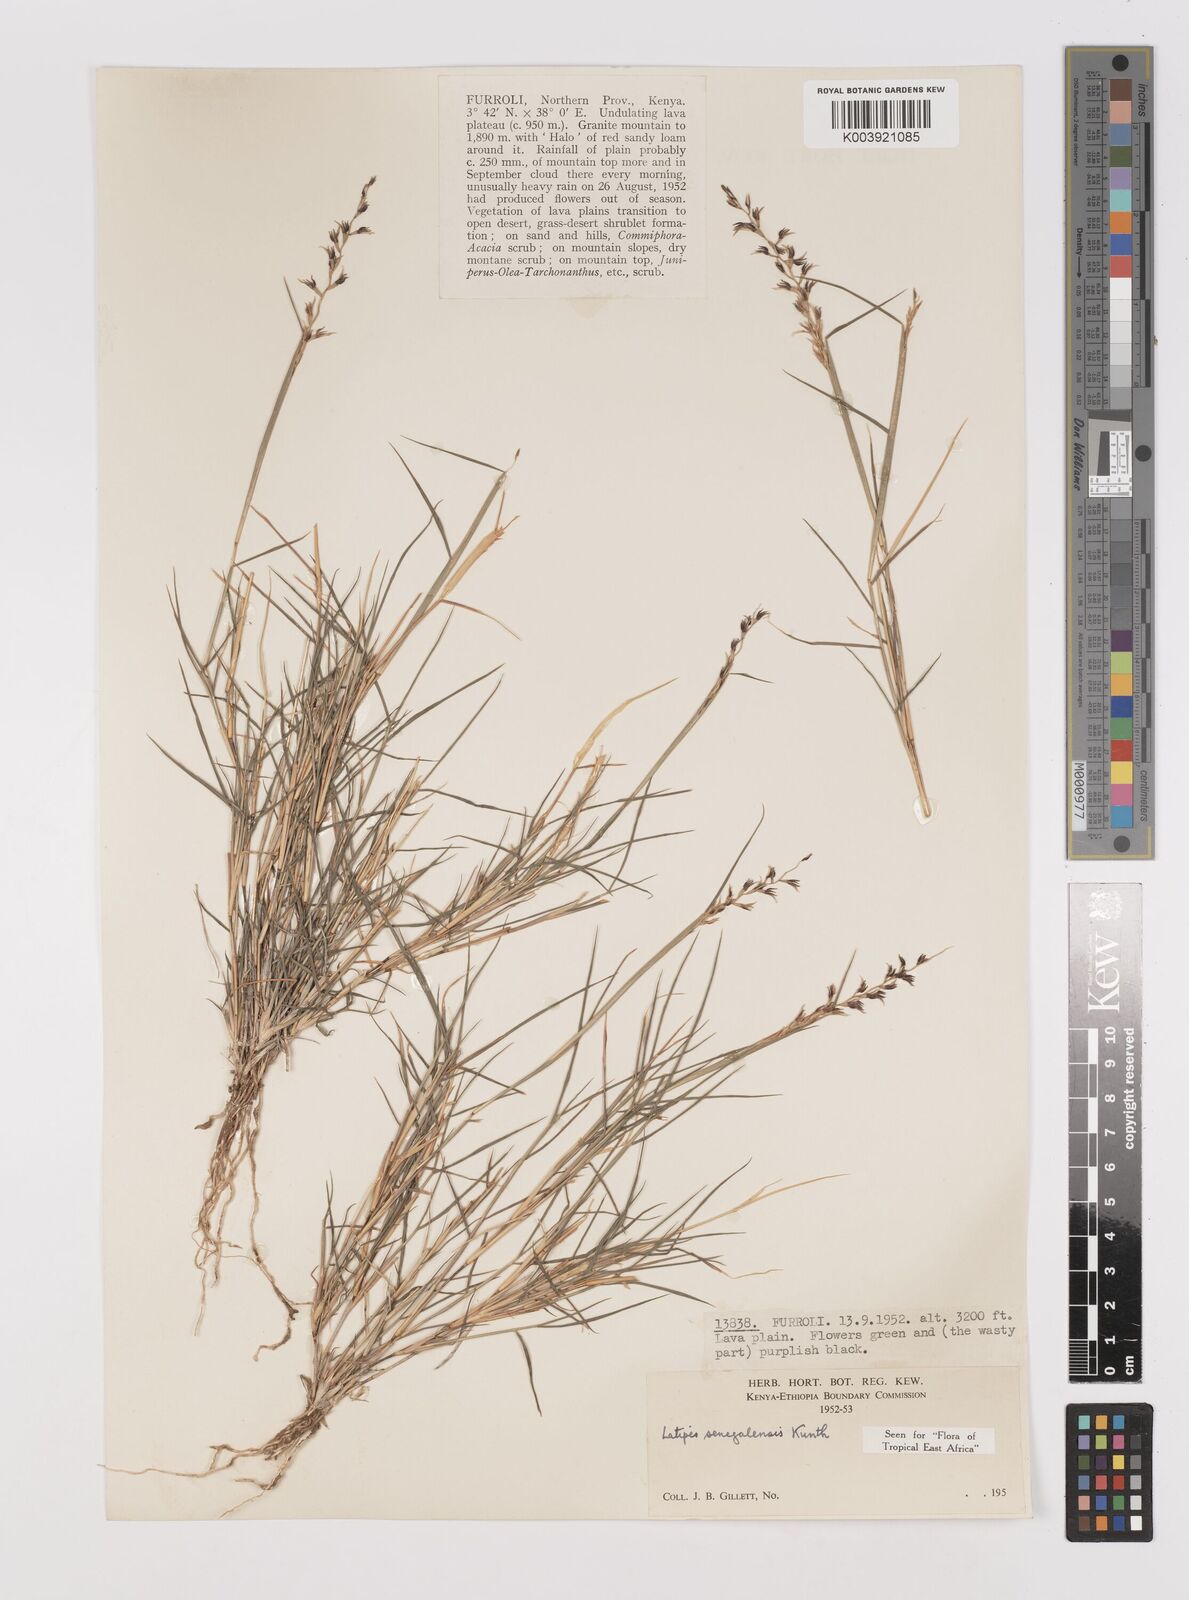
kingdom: Plantae
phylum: Tracheophyta
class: Liliopsida
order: Poales
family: Poaceae
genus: Leptothrium
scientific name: Leptothrium senegalense
